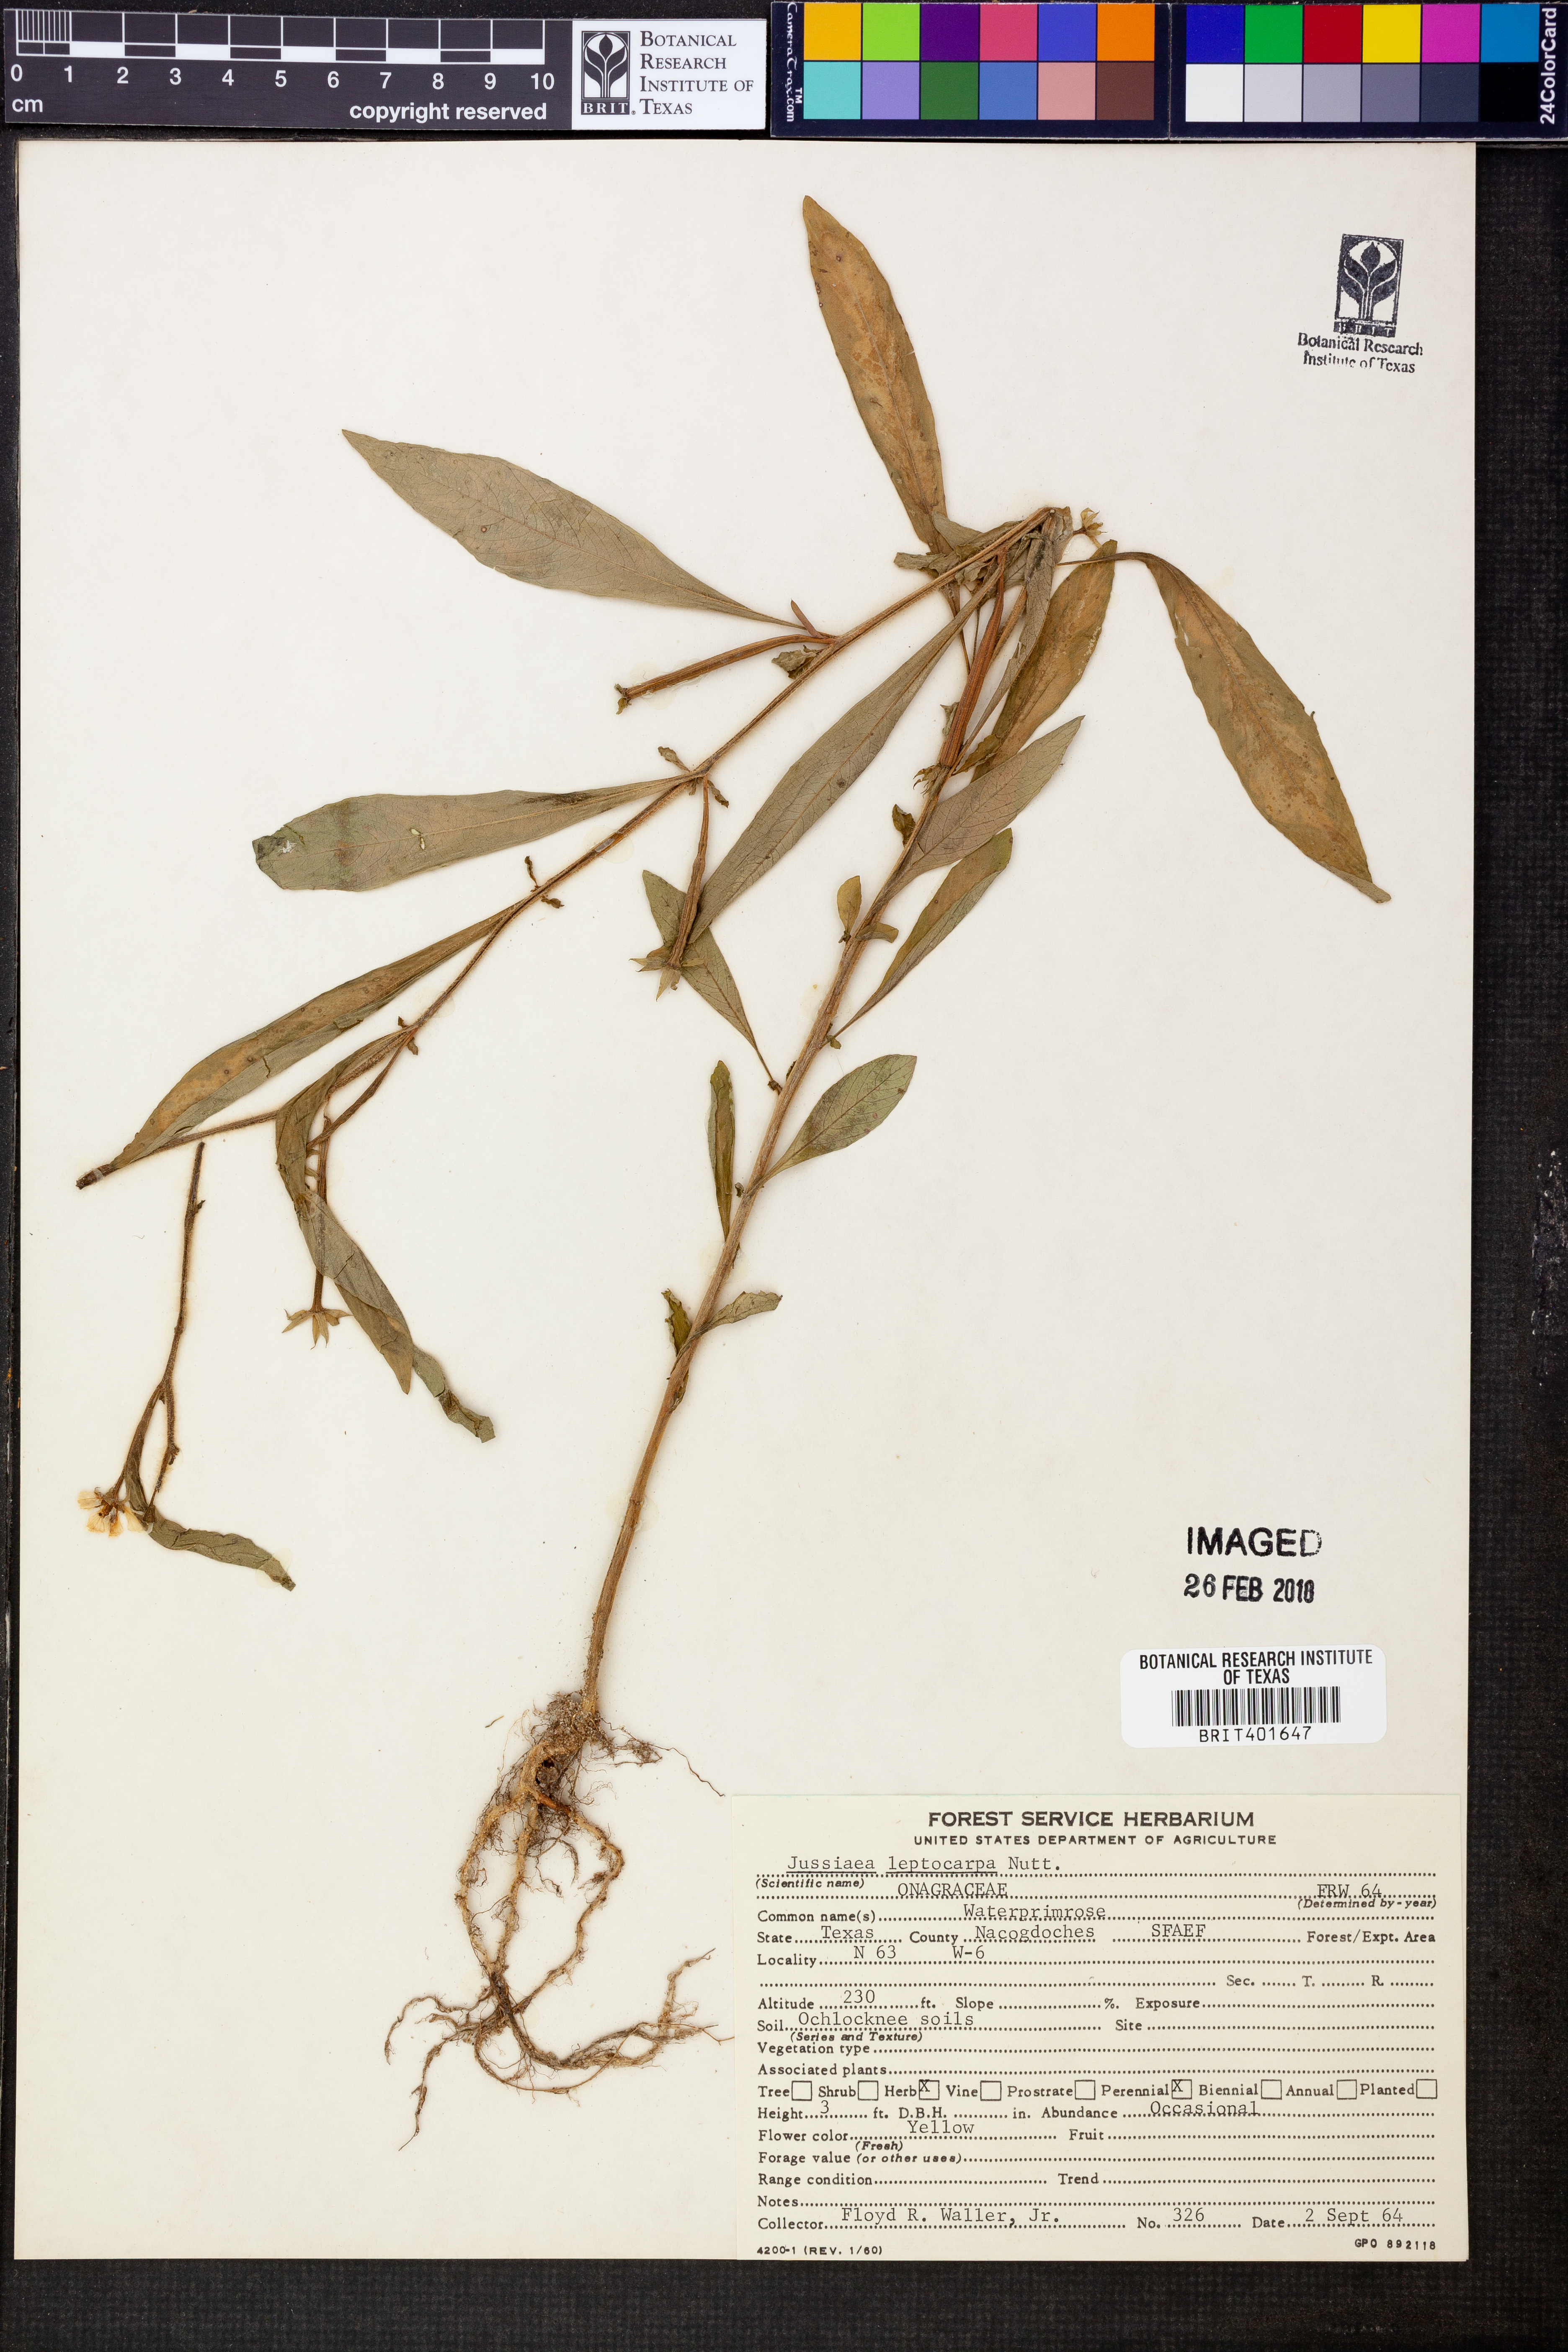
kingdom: Plantae
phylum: Tracheophyta
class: Magnoliopsida
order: Myrtales
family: Onagraceae
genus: Ludwigia
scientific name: Ludwigia leptocarpa
